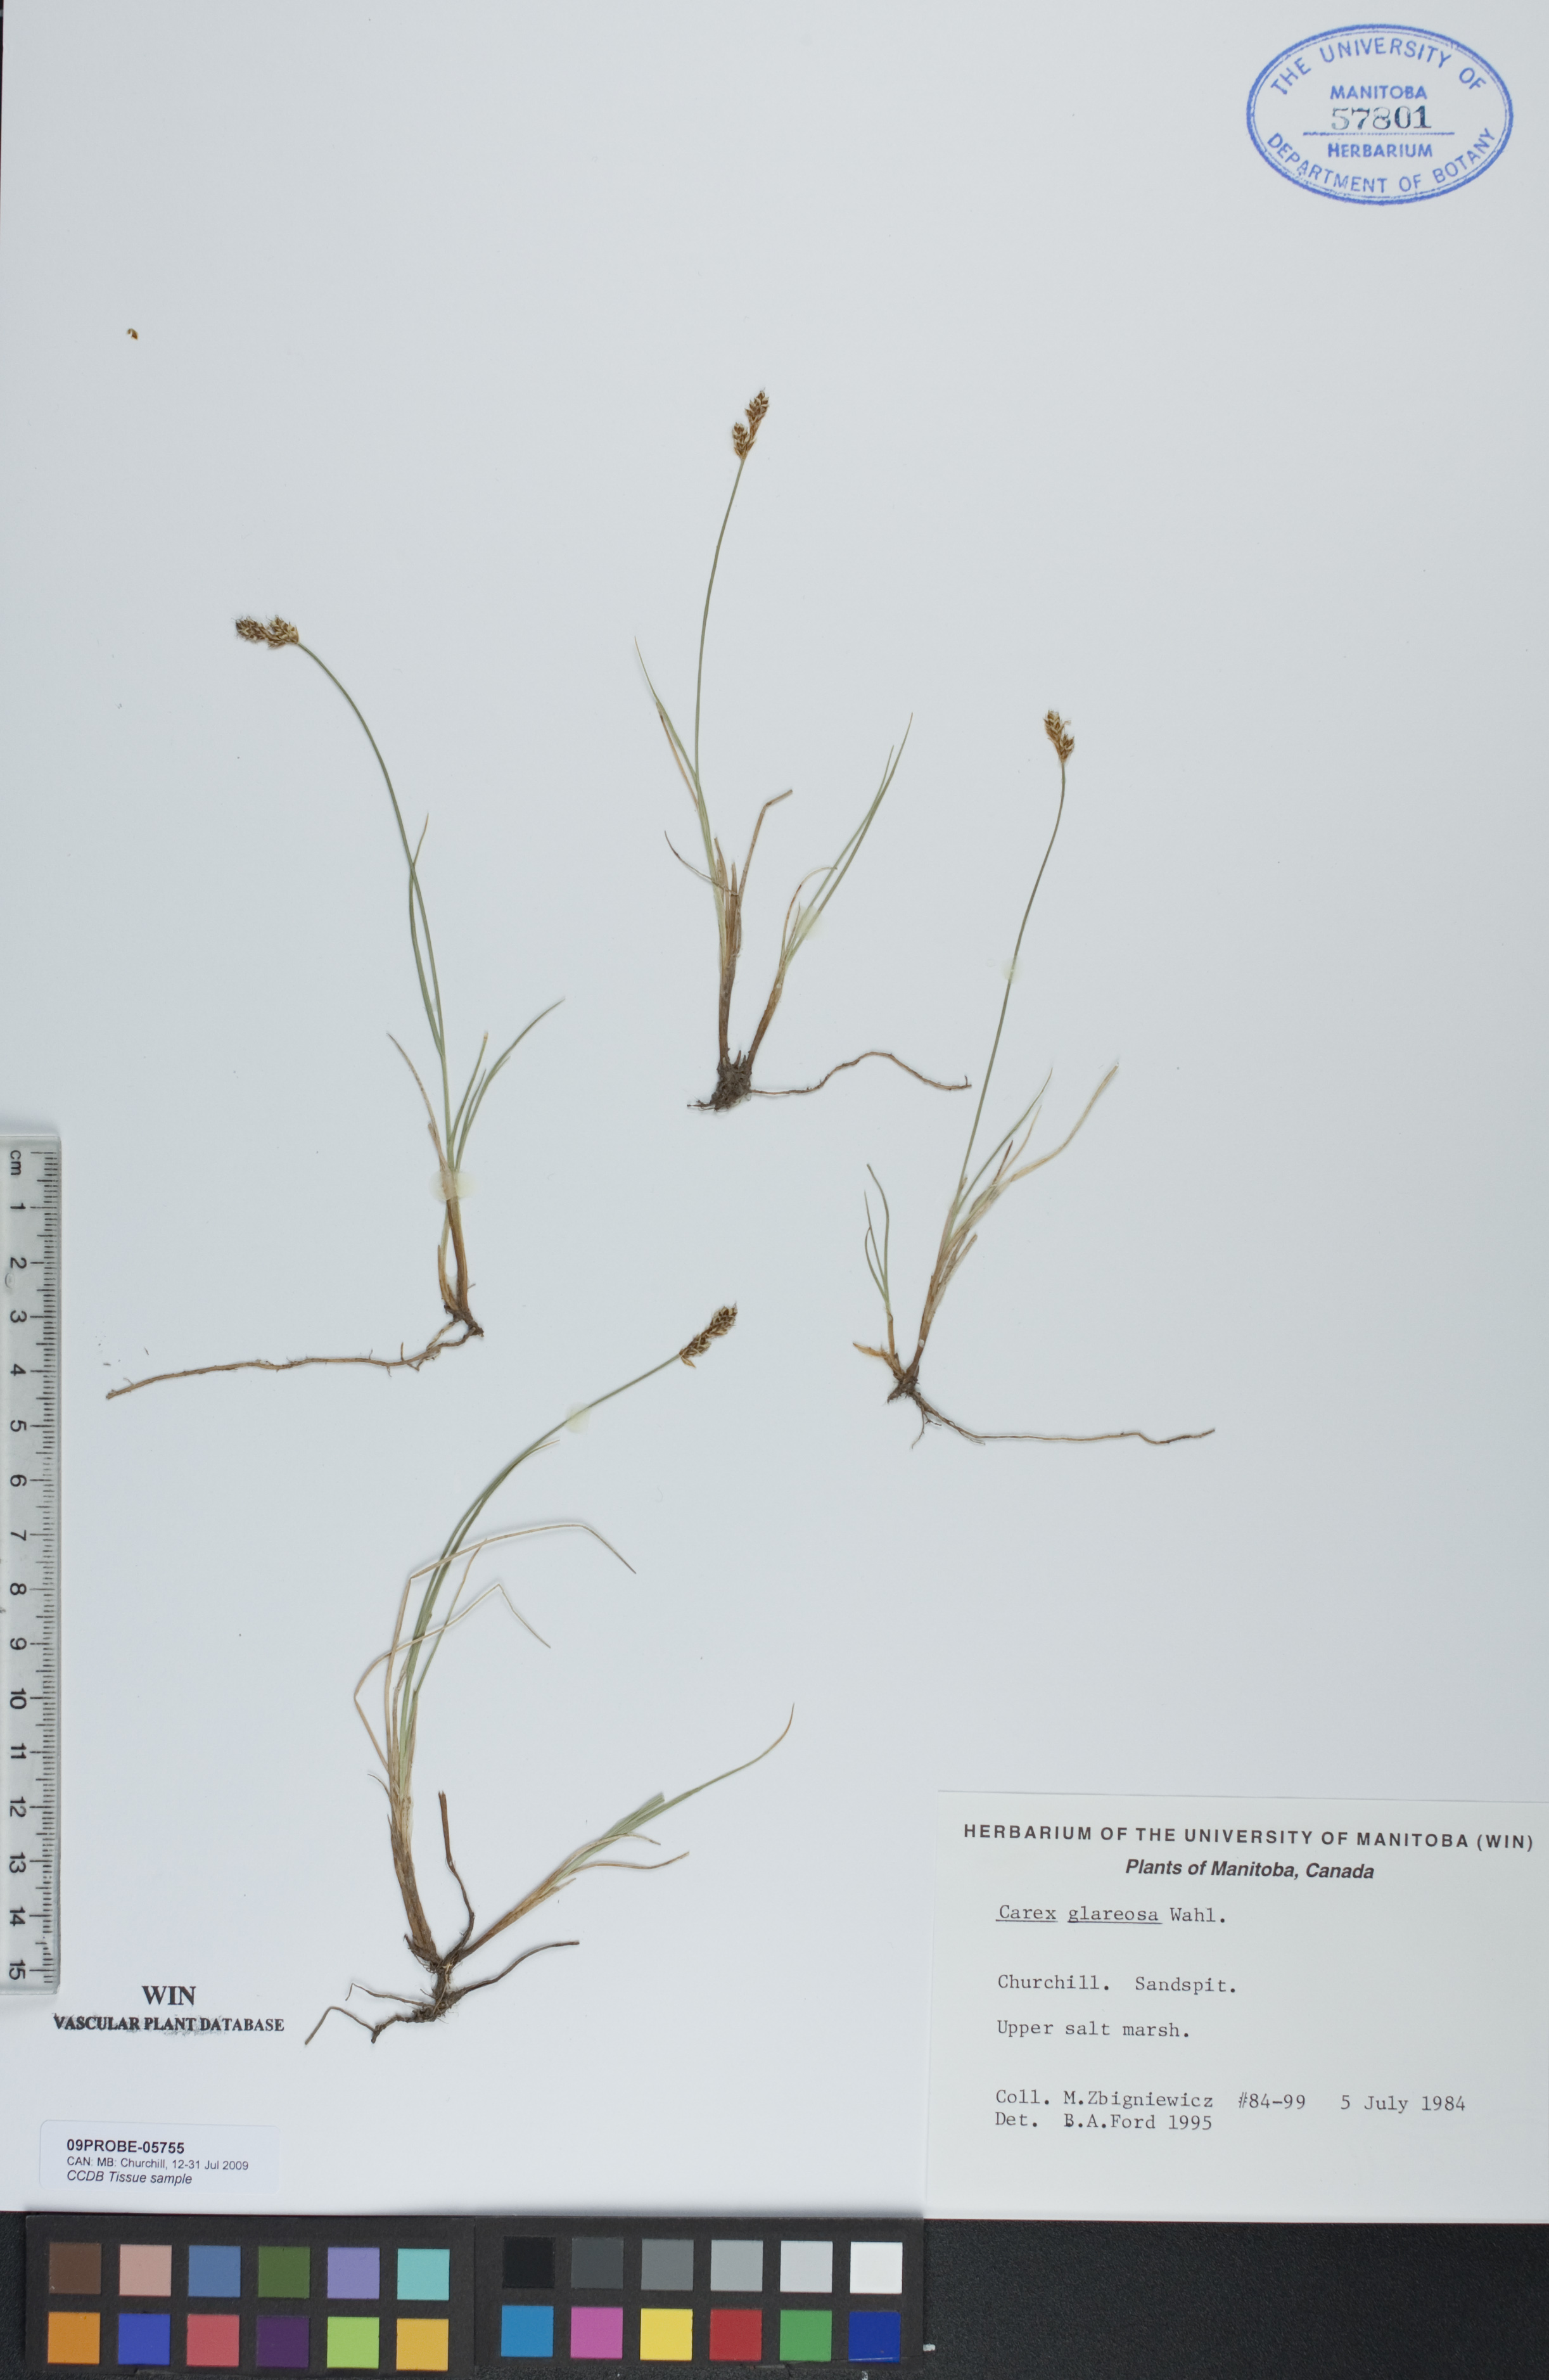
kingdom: Plantae
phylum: Tracheophyta
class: Liliopsida
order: Poales
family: Cyperaceae
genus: Carex
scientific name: Carex glareosa
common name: Clustered sedge
